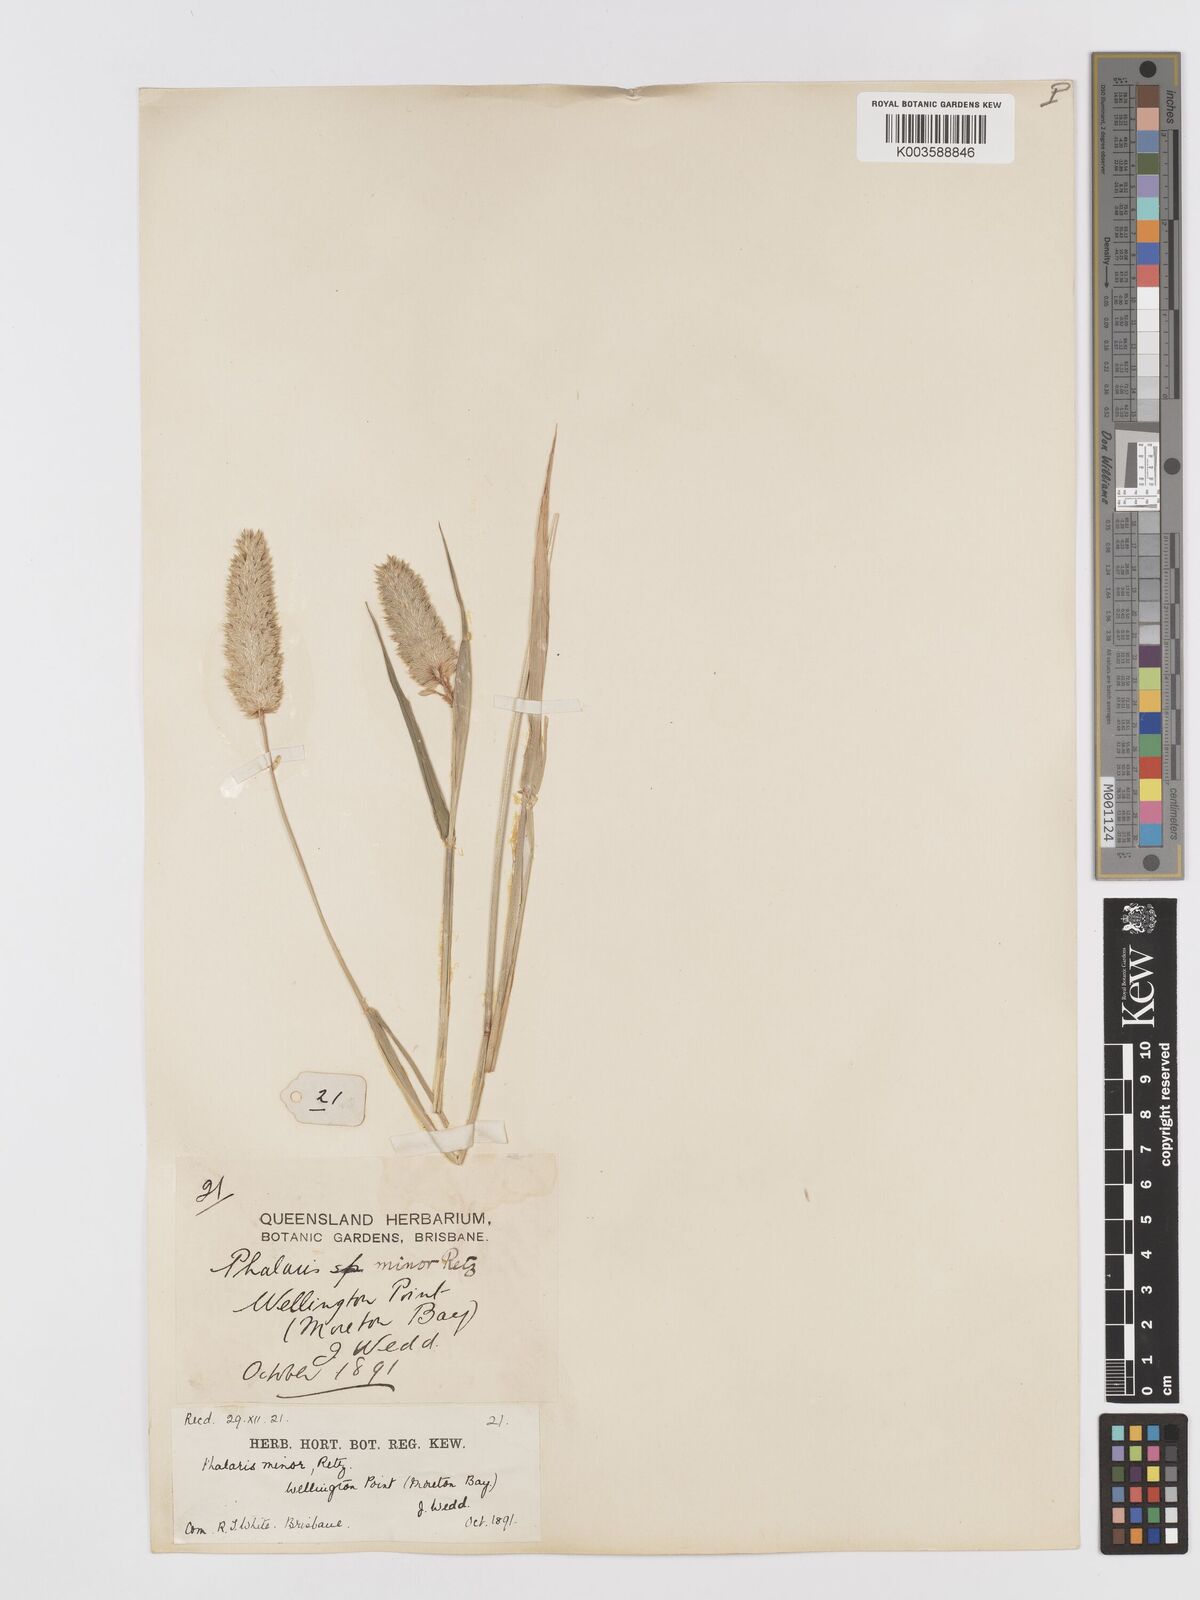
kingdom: Plantae
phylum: Tracheophyta
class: Liliopsida
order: Poales
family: Poaceae
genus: Phalaris
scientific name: Phalaris minor
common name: Littleseed canarygrass
